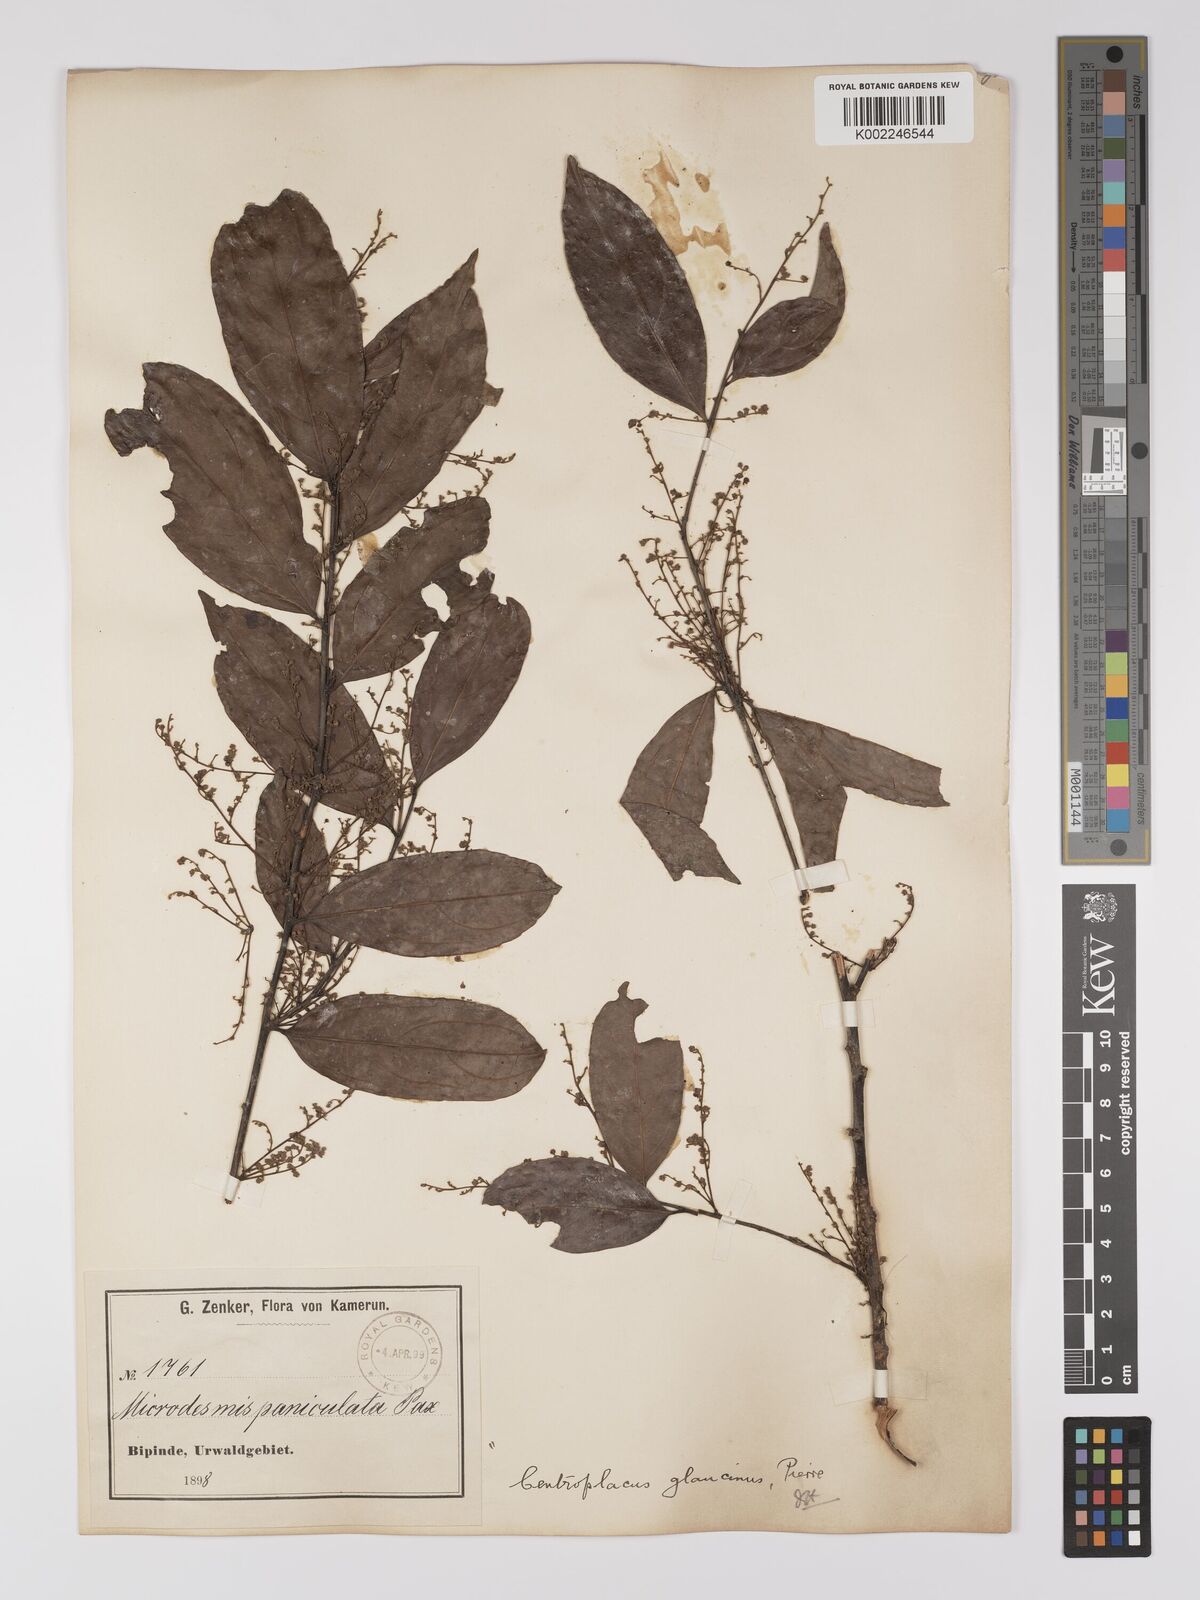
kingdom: Plantae
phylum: Tracheophyta
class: Magnoliopsida
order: Malpighiales
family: Centroplacaceae
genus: Centroplacus
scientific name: Centroplacus glaucinus
